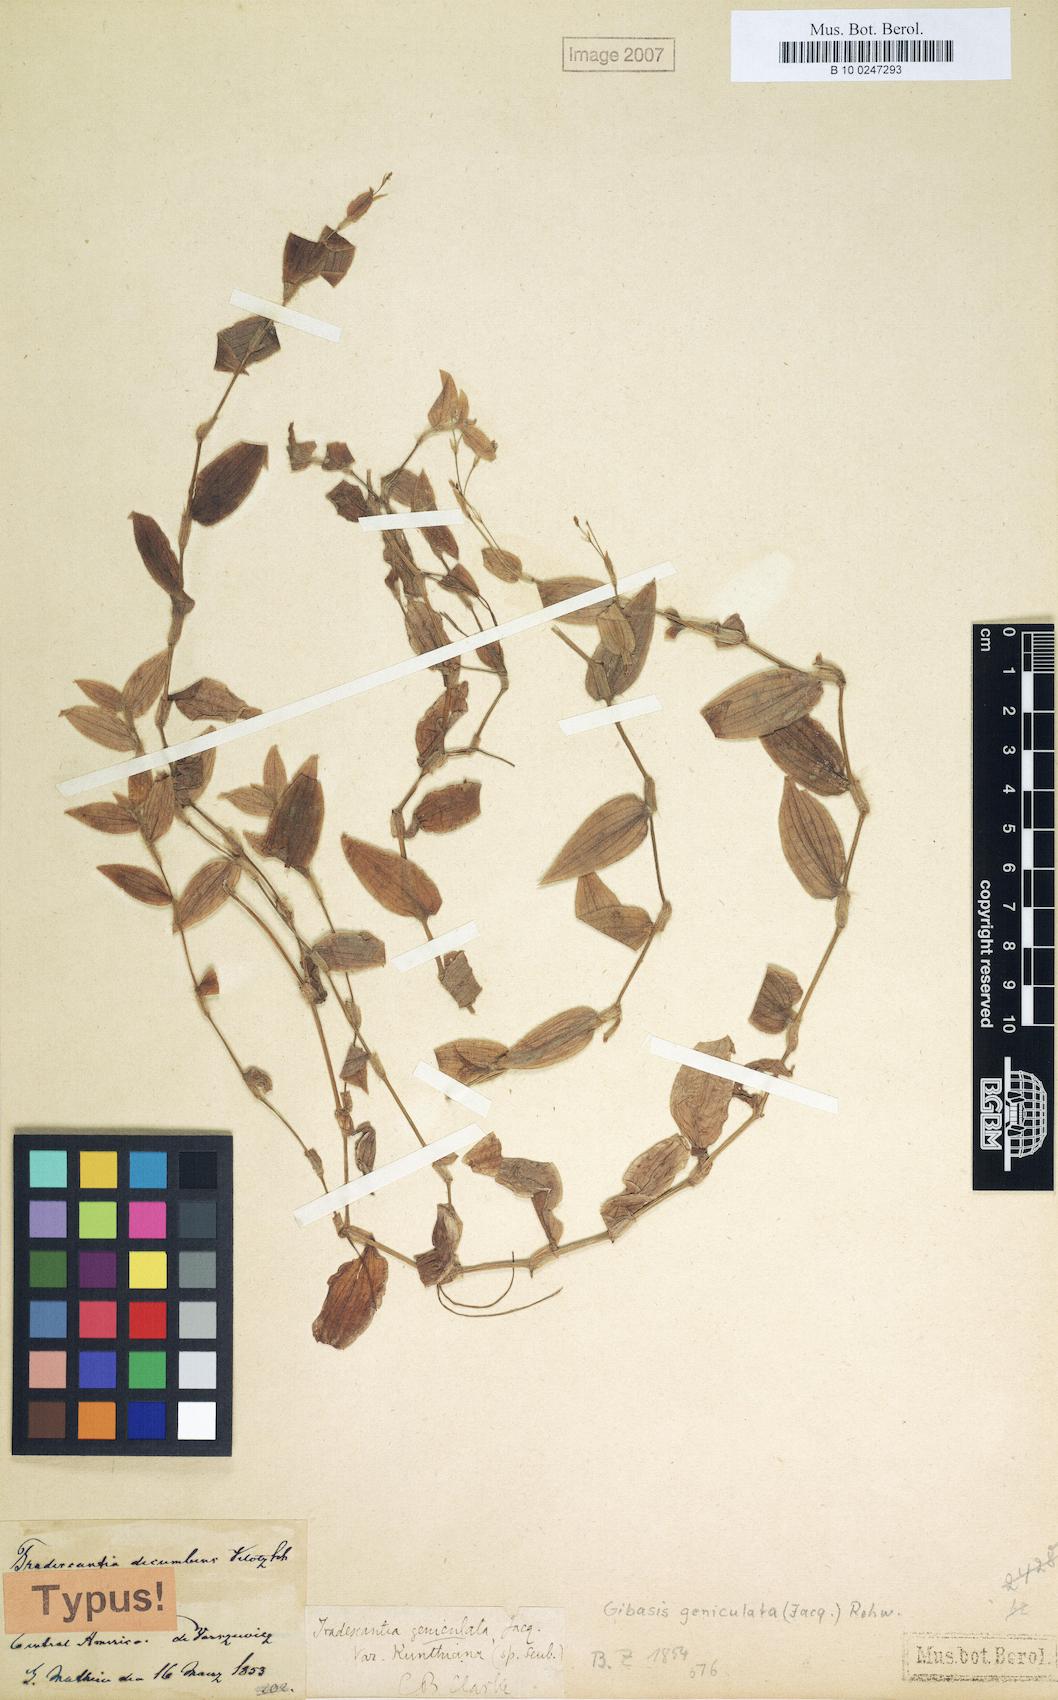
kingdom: Plantae
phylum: Tracheophyta
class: Liliopsida
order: Commelinales
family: Commelinaceae
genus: Gibasis
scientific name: Gibasis geniculata
